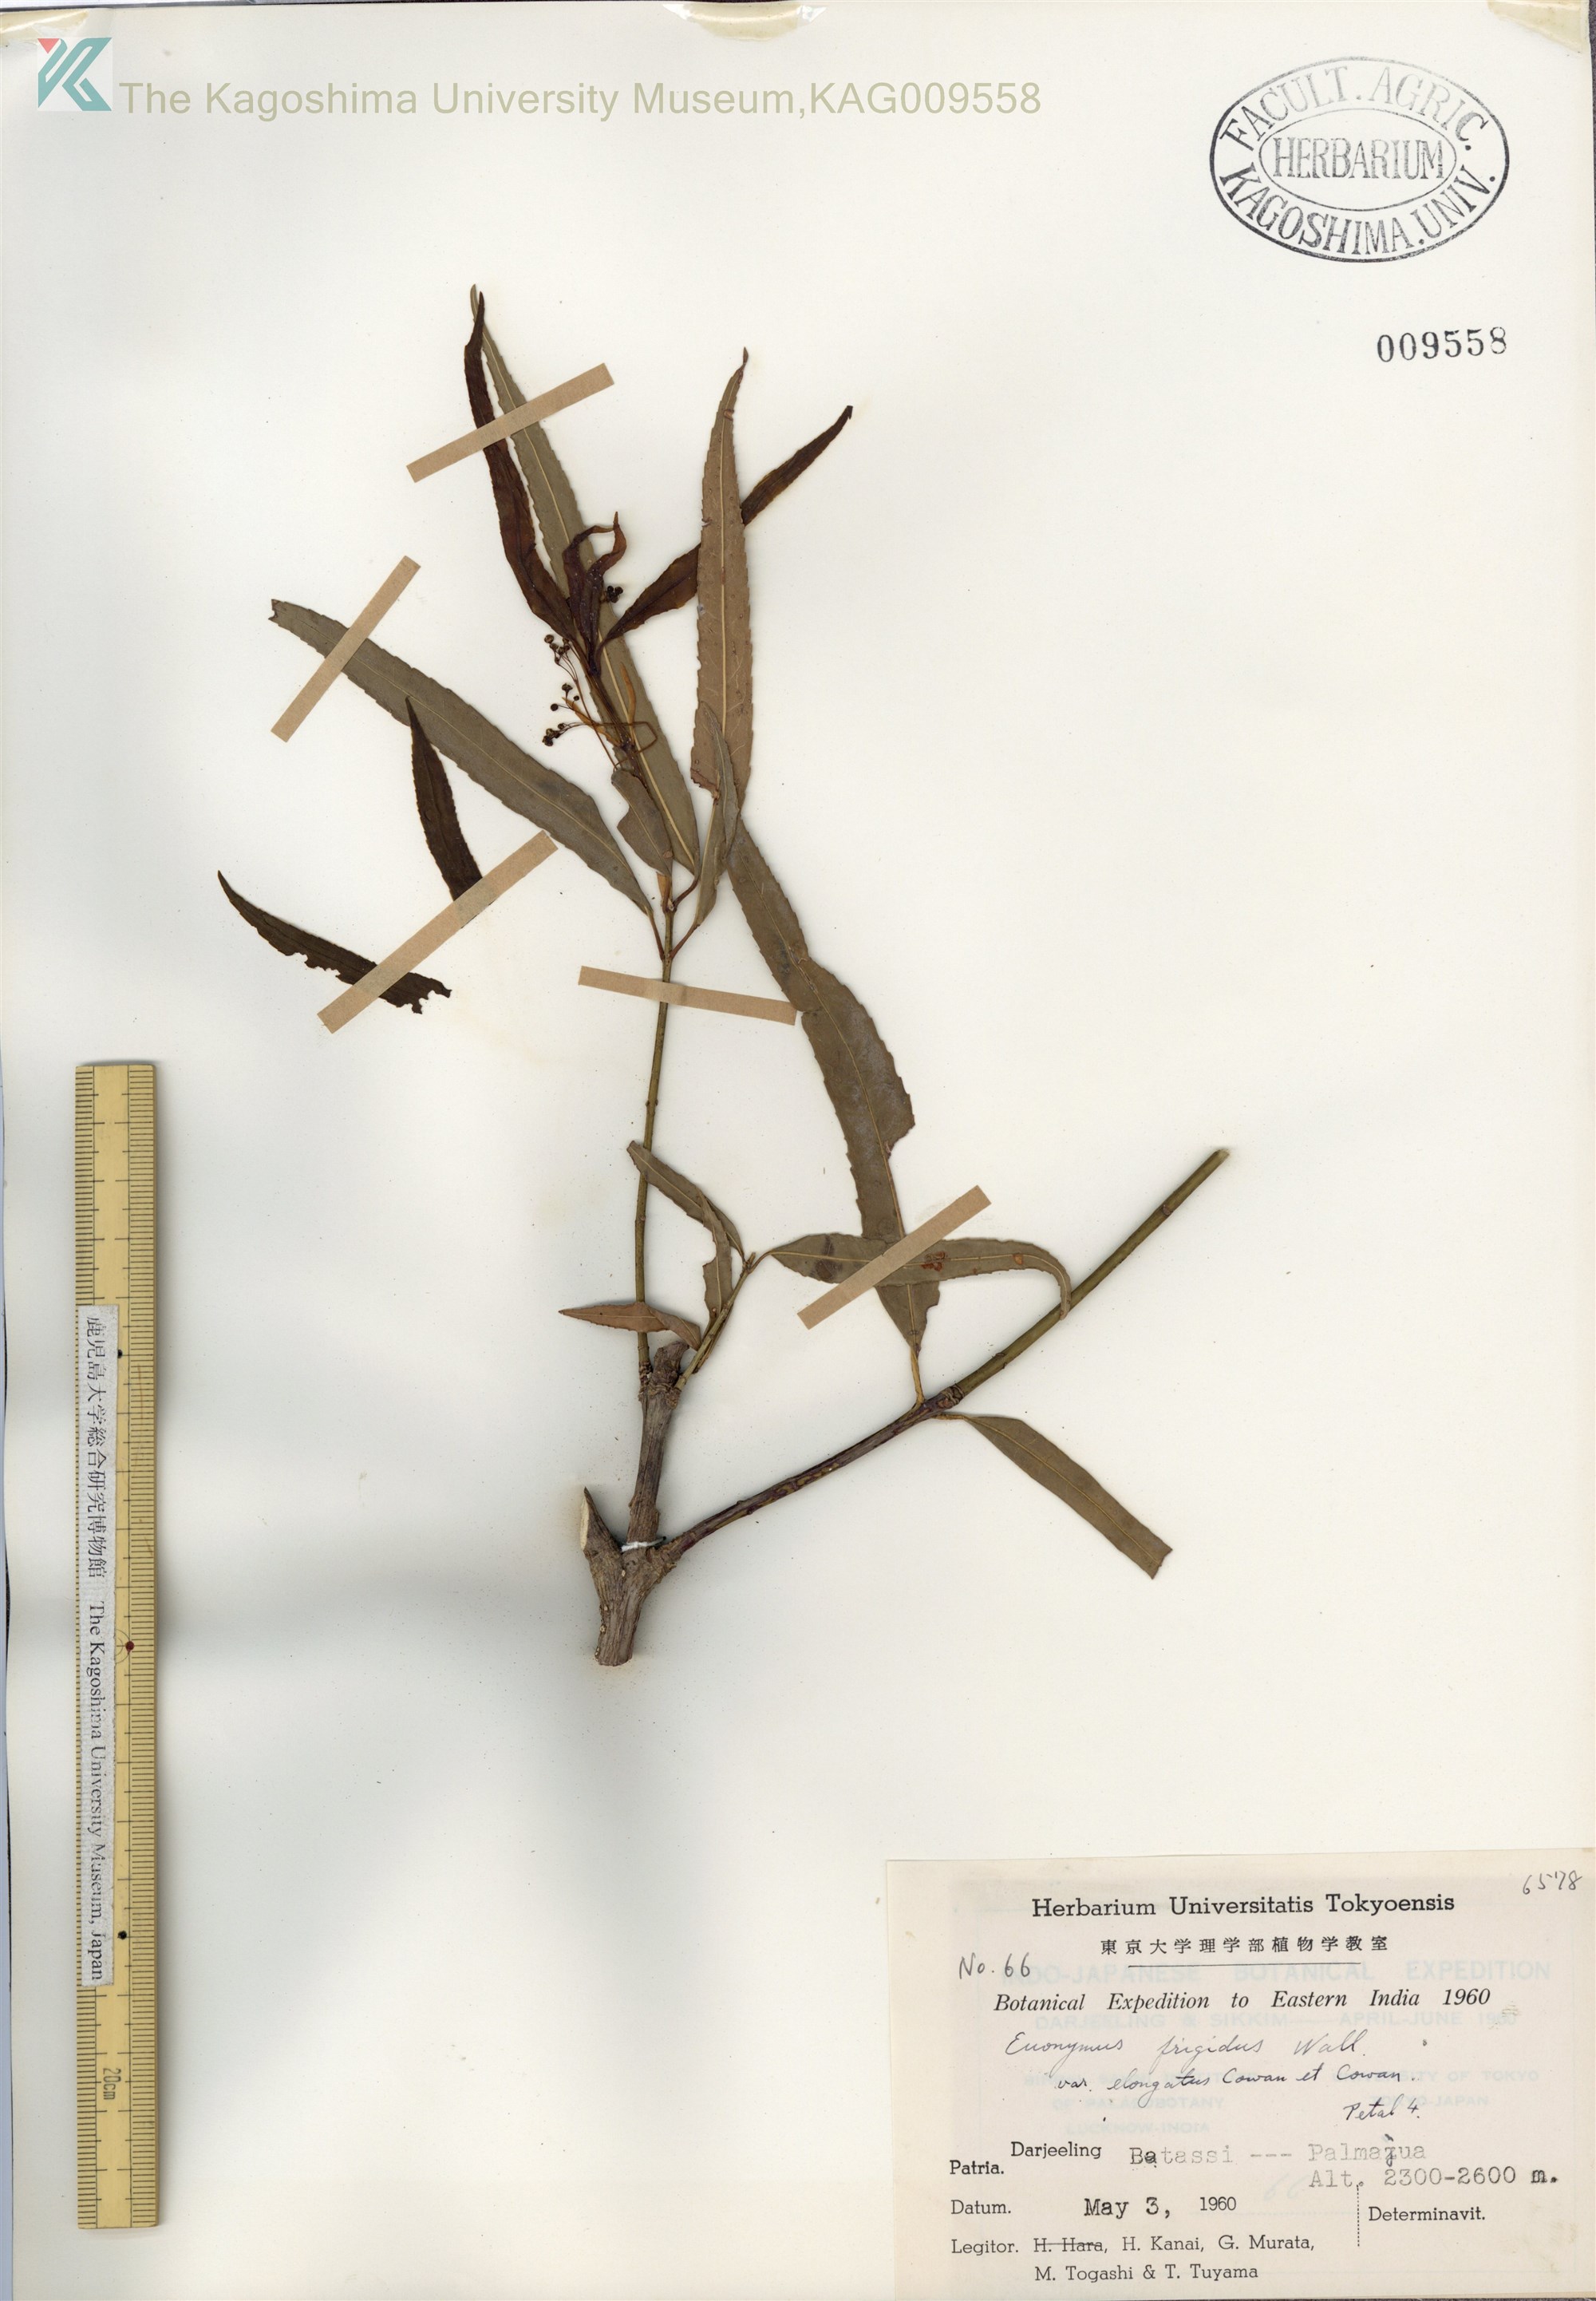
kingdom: Plantae
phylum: Tracheophyta
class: Magnoliopsida
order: Celastrales
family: Celastraceae
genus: Euonymus
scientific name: Euonymus frigidus
